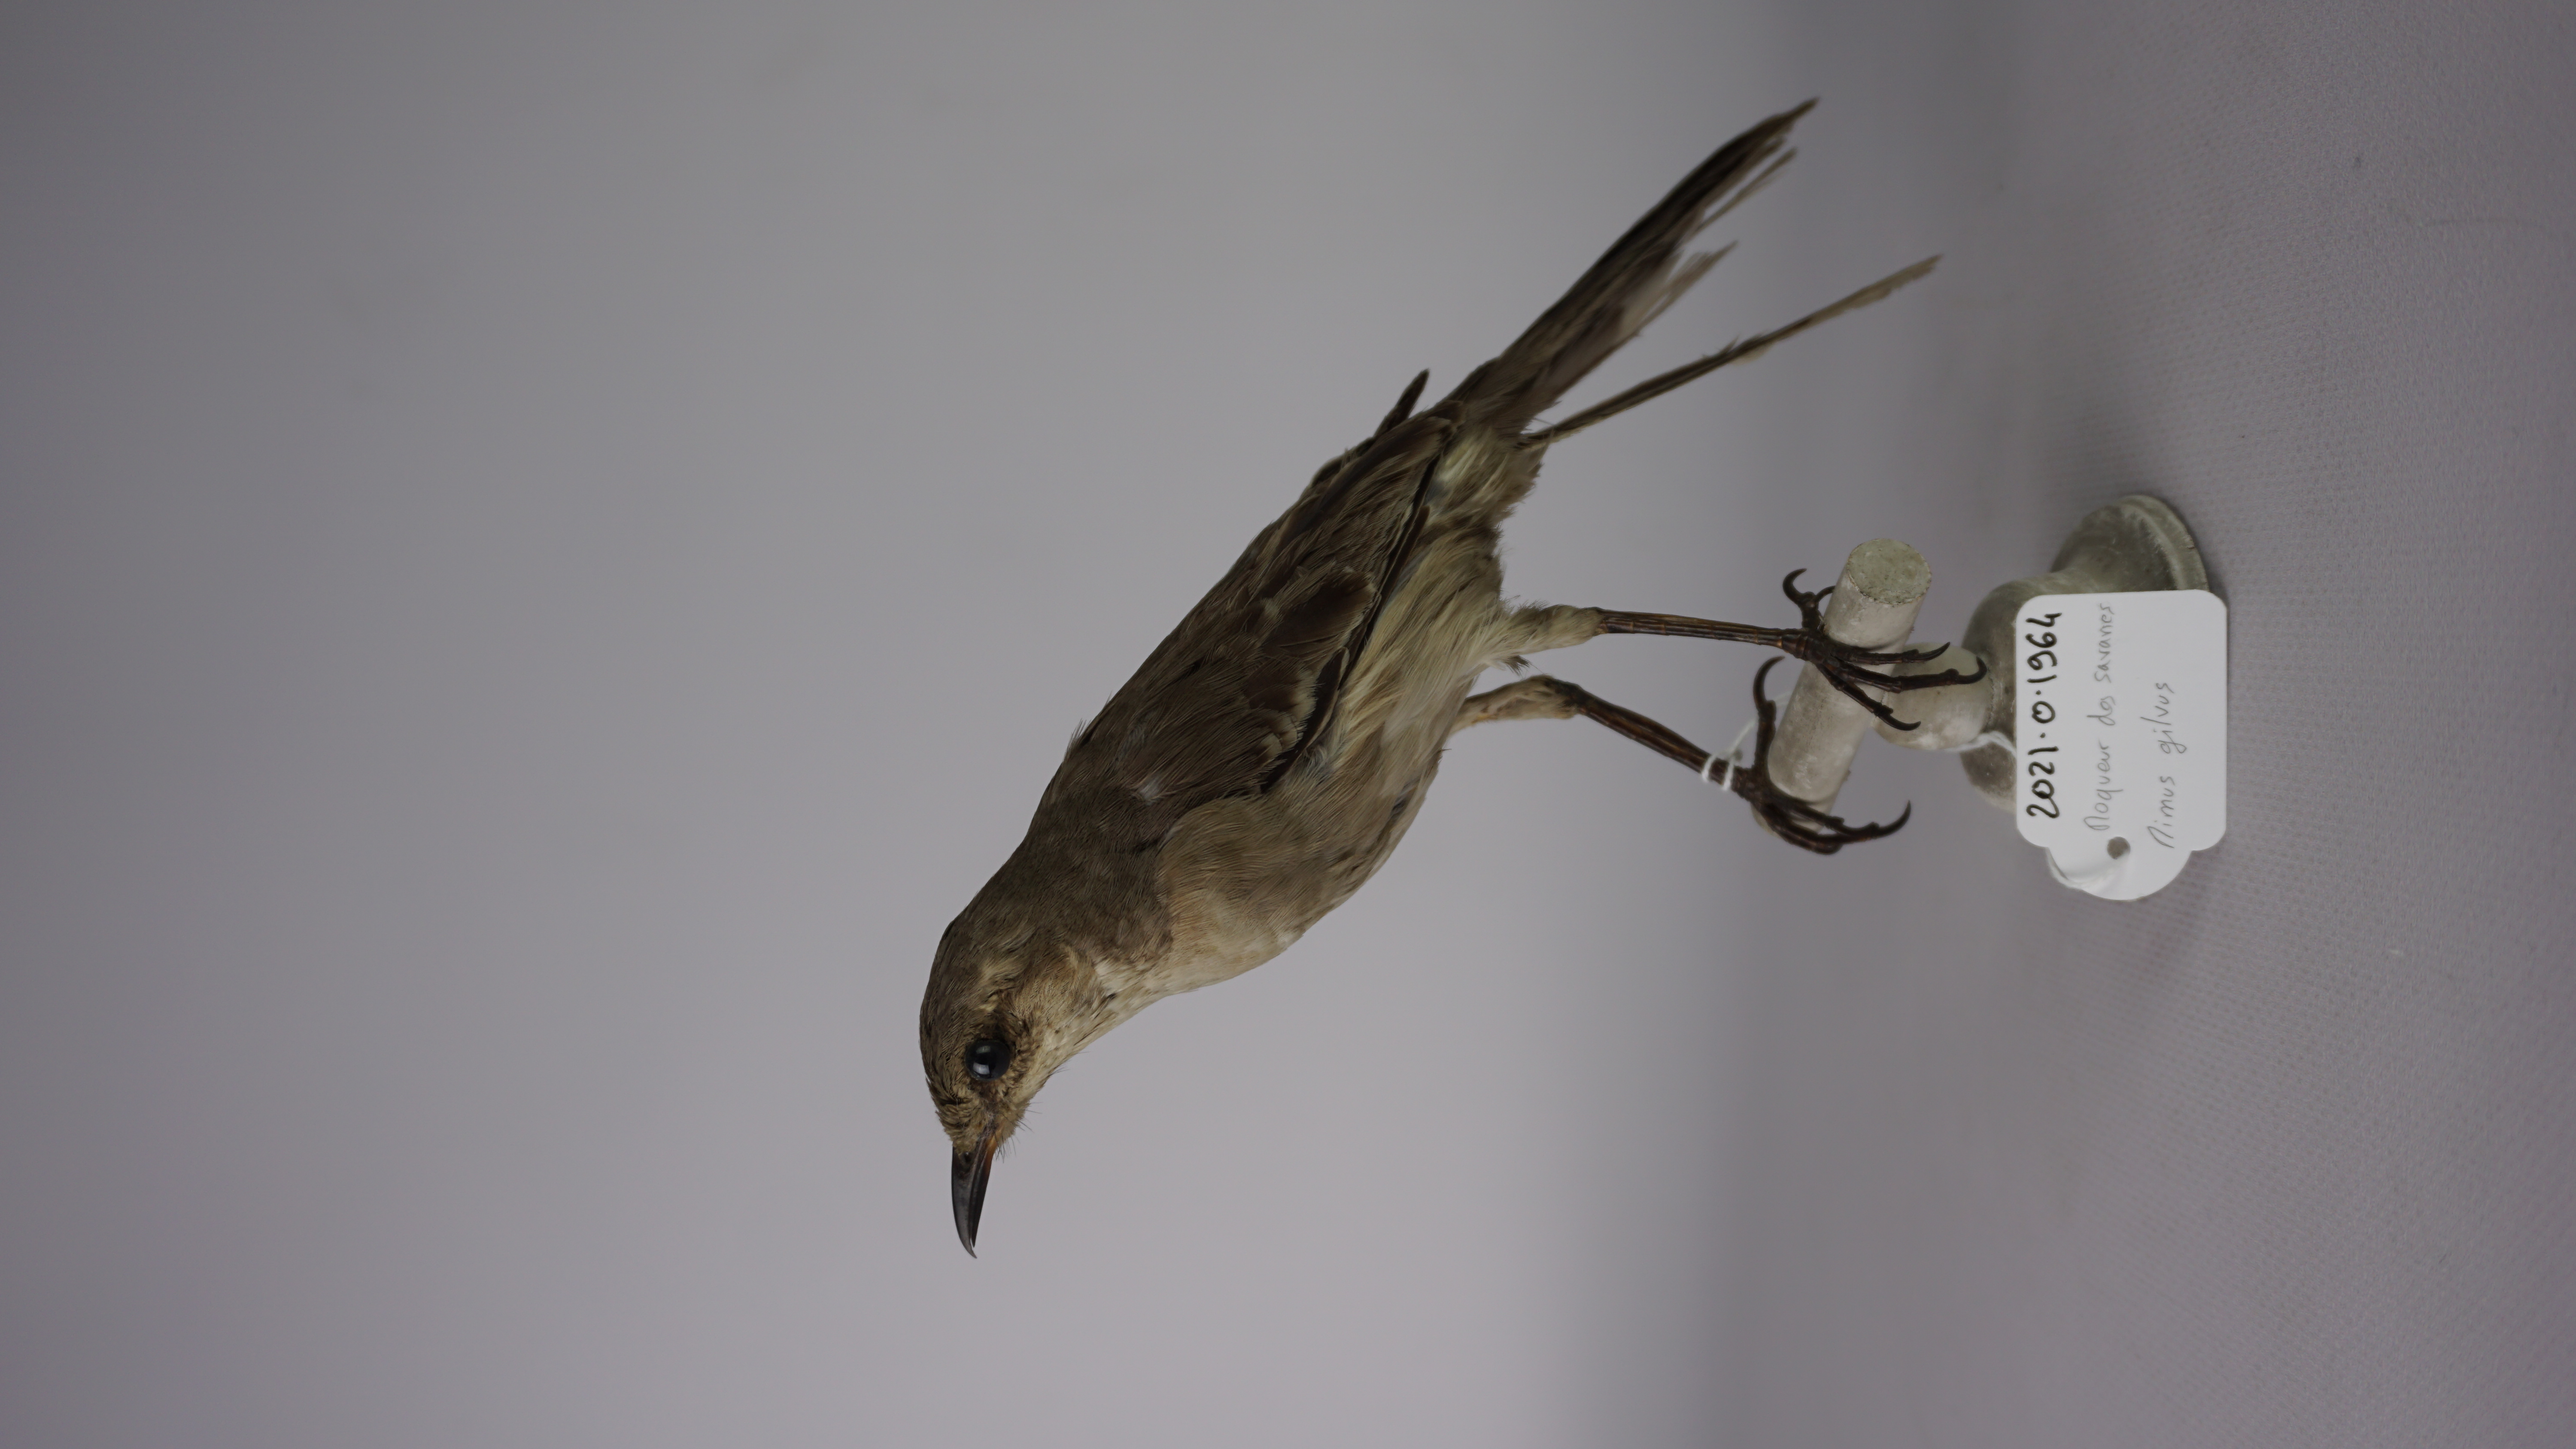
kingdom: Animalia
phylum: Chordata
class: Aves
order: Passeriformes
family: Mimidae
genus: Mimus
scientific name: Mimus gilvus
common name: Tropical mockingbird
